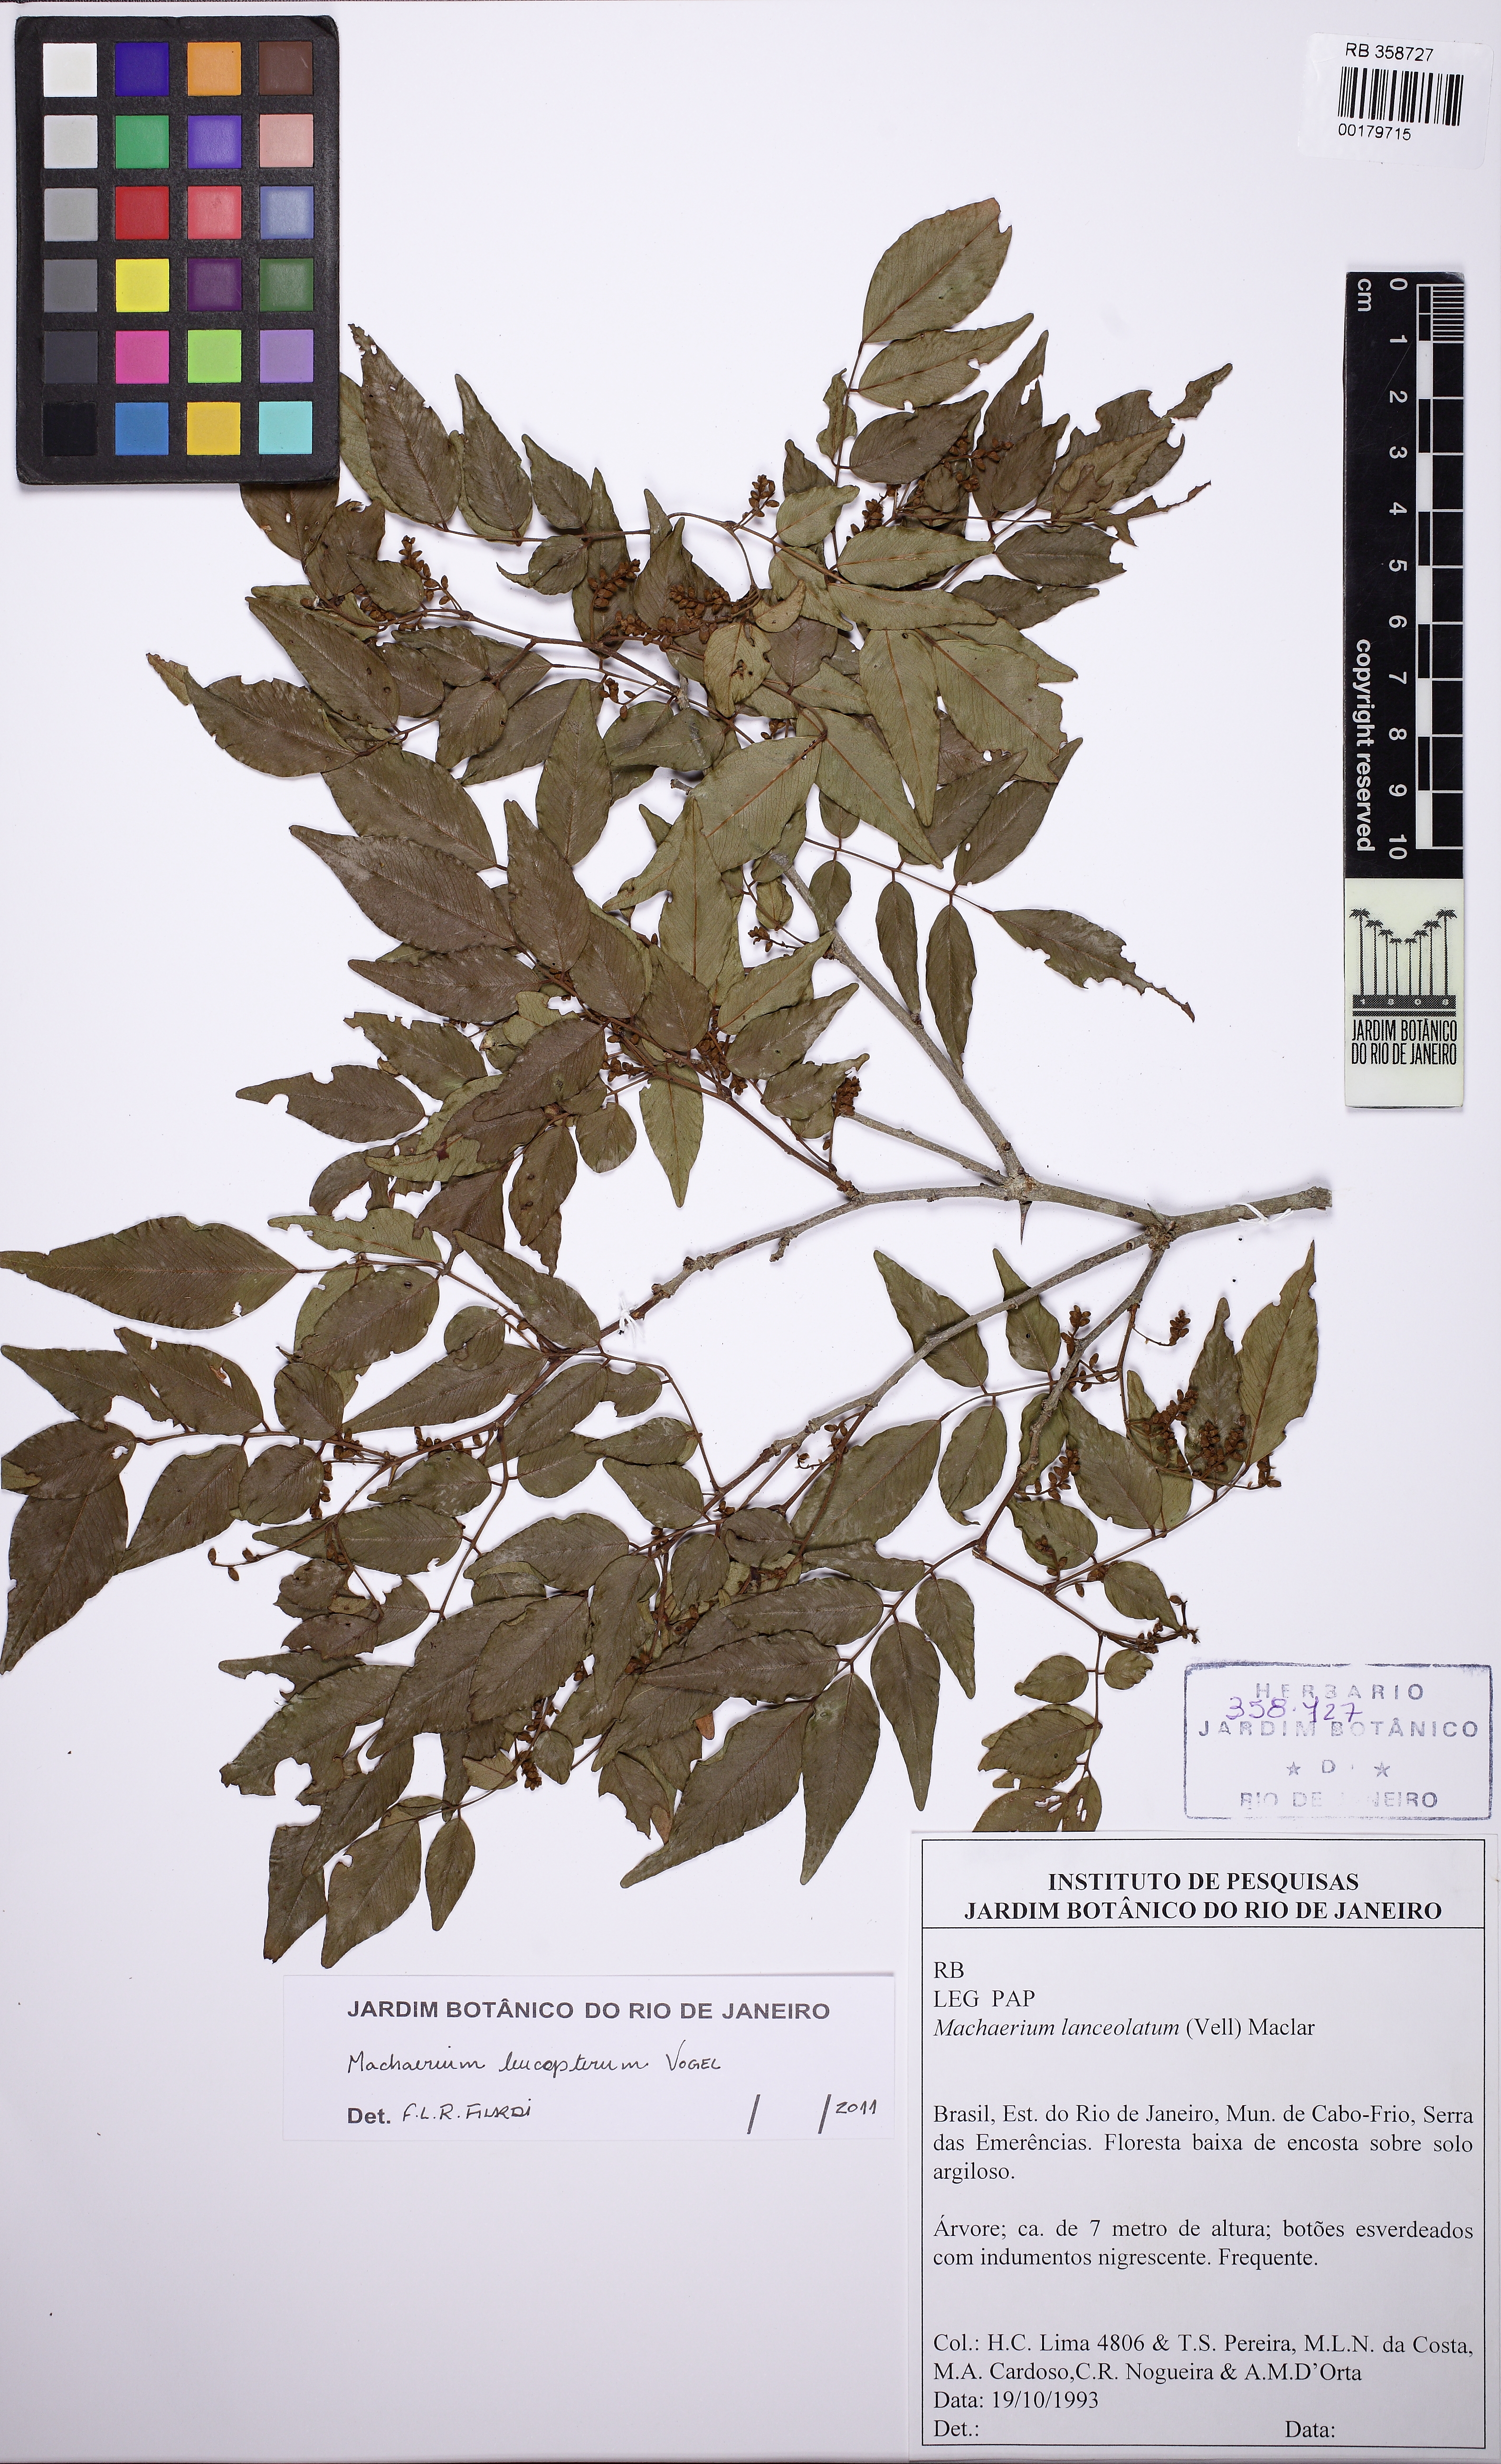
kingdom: Plantae
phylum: Tracheophyta
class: Magnoliopsida
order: Fabales
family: Fabaceae
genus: Machaerium
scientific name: Machaerium leucopterum
